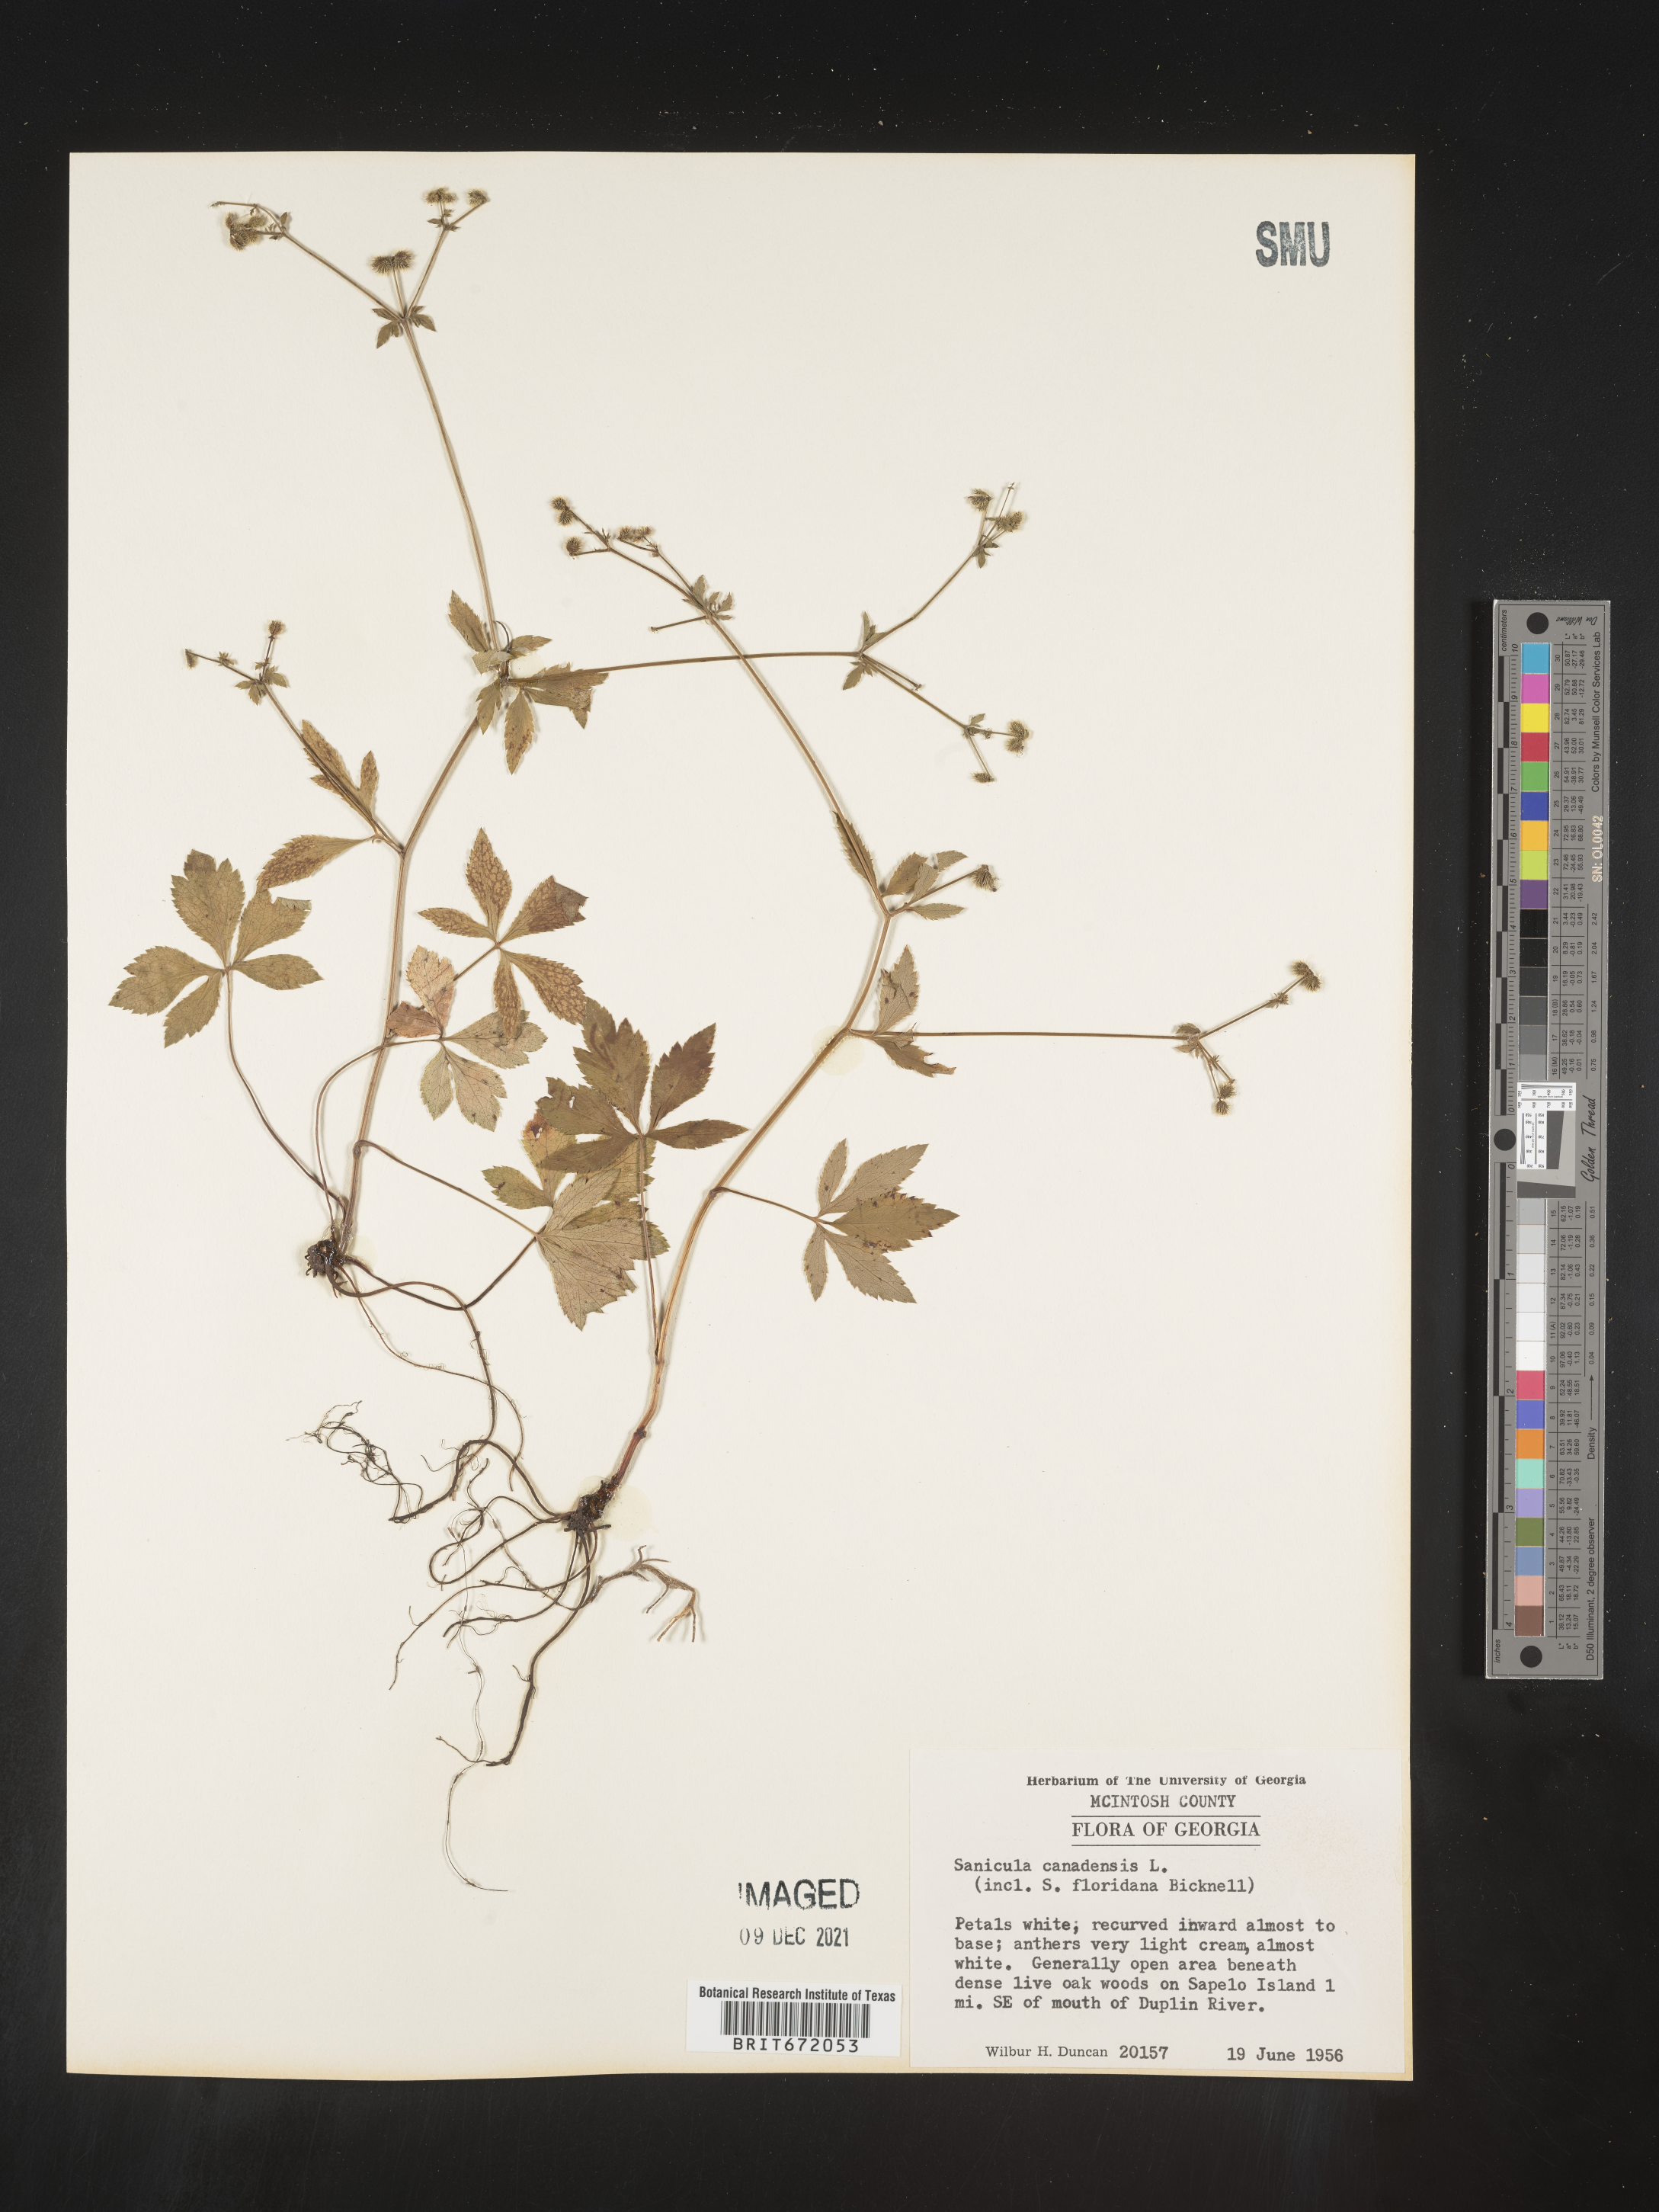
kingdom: Plantae
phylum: Tracheophyta
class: Magnoliopsida
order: Apiales
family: Apiaceae
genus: Sanicula
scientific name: Sanicula canadensis
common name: Canada sanicle
